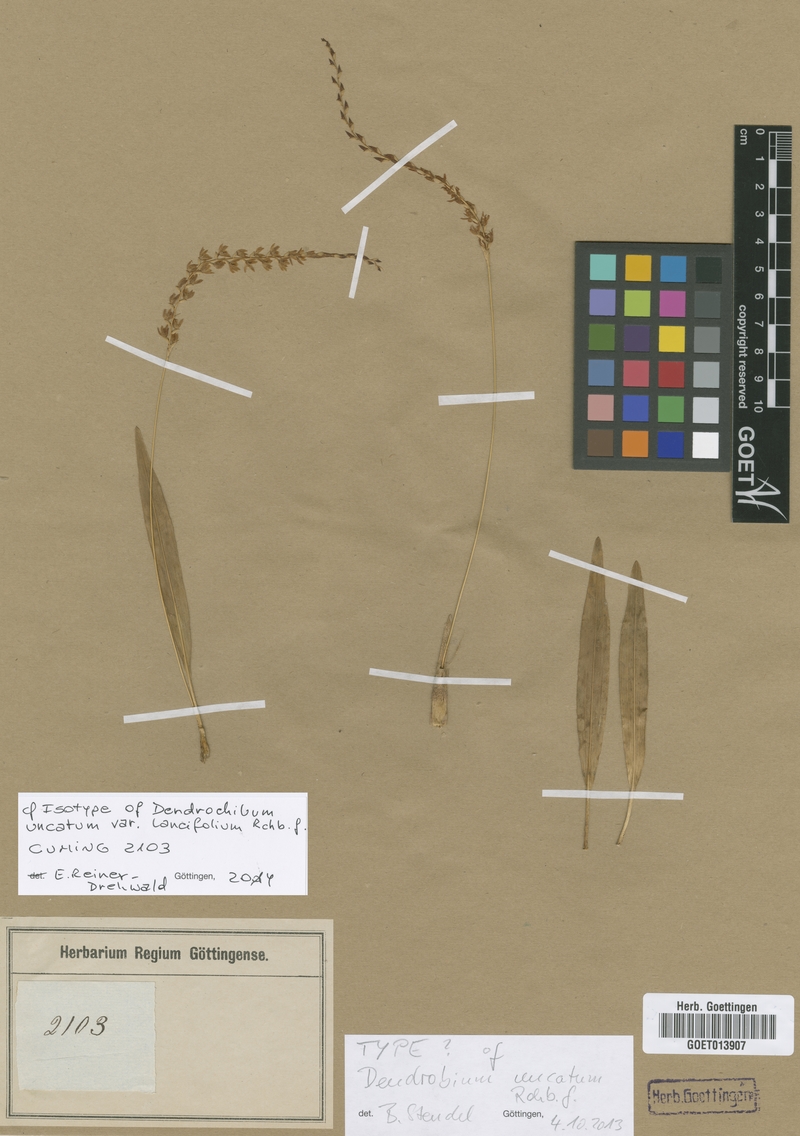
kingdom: Plantae
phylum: Tracheophyta
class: Liliopsida
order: Asparagales
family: Orchidaceae
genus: Coelogyne
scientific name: Coelogyne uncata
